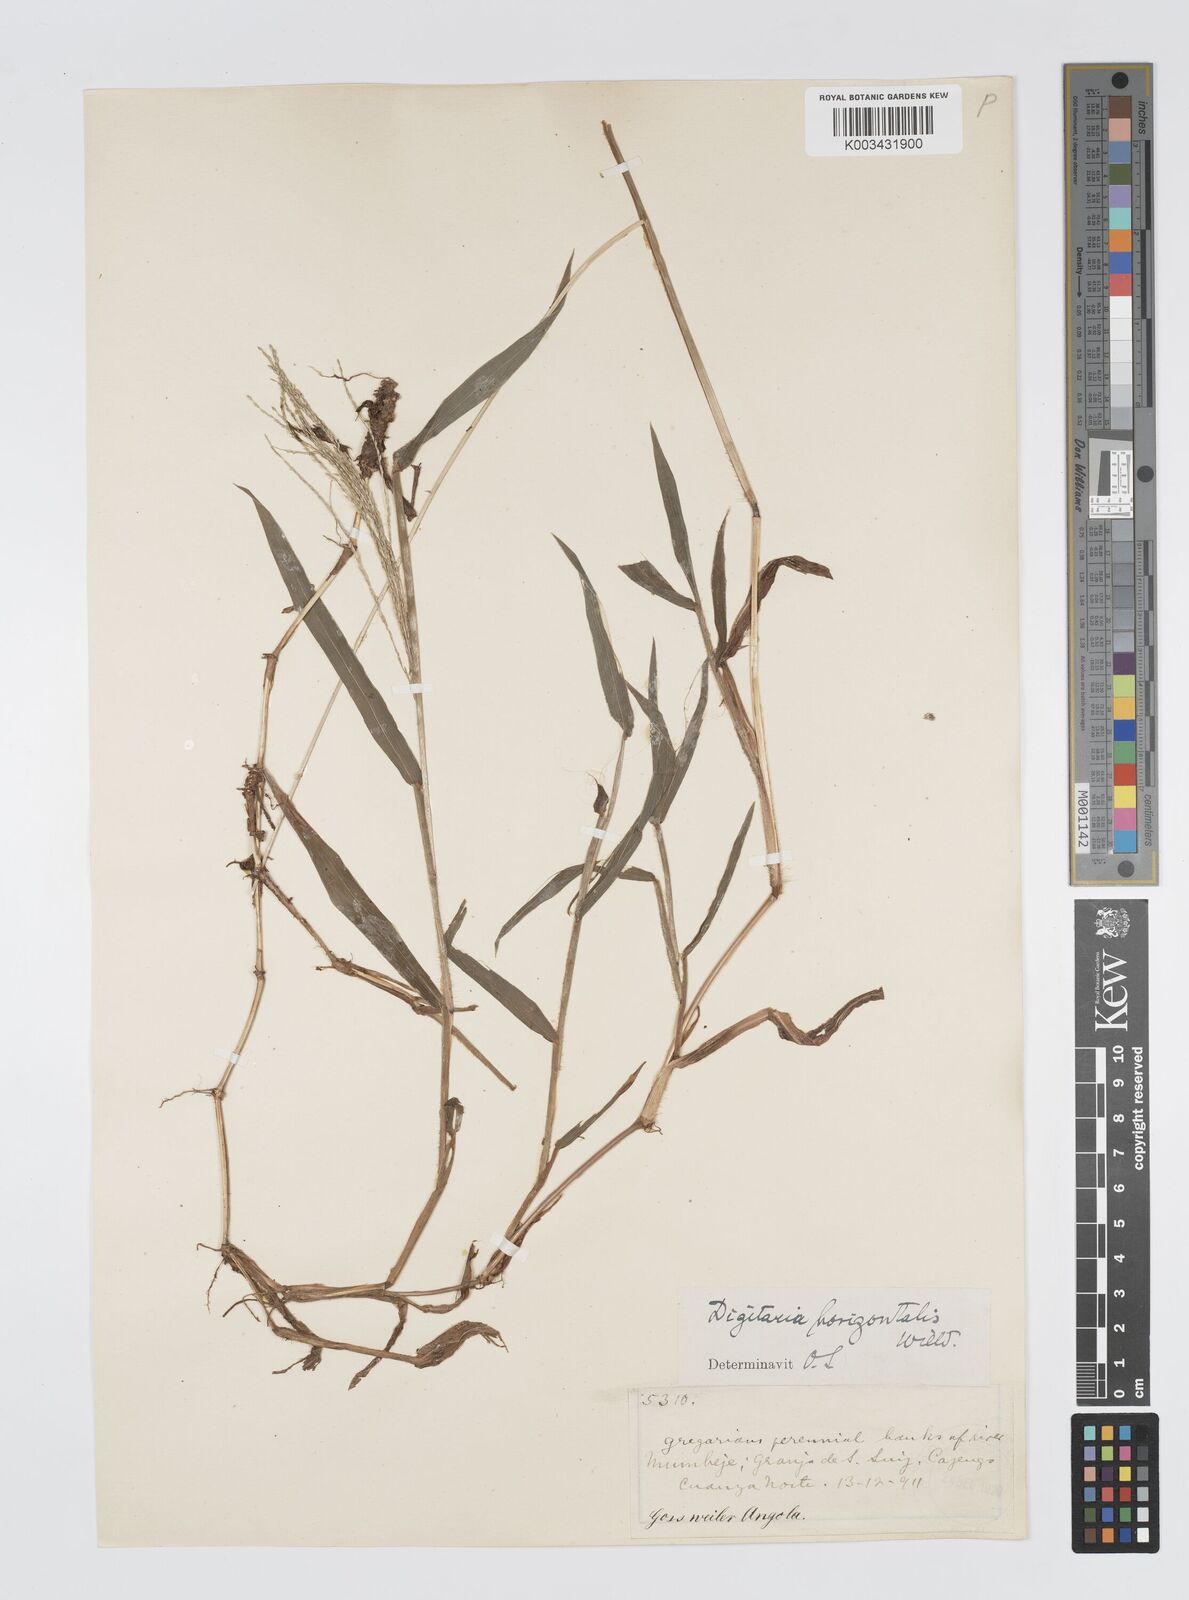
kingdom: Plantae
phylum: Tracheophyta
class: Liliopsida
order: Poales
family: Poaceae
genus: Digitaria
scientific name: Digitaria velutina
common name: Long-plume finger grass
